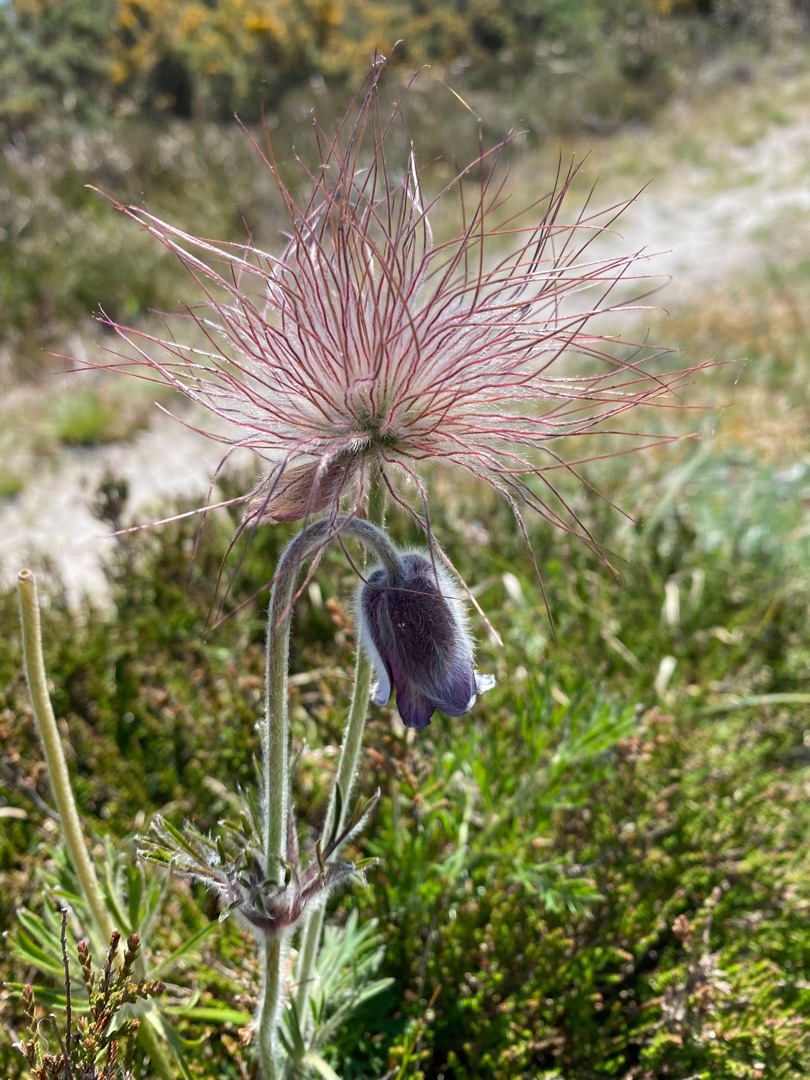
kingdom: Plantae
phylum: Tracheophyta
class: Magnoliopsida
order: Ranunculales
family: Ranunculaceae
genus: Pulsatilla
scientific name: Pulsatilla pratensis
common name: Nikkende kobjælde
